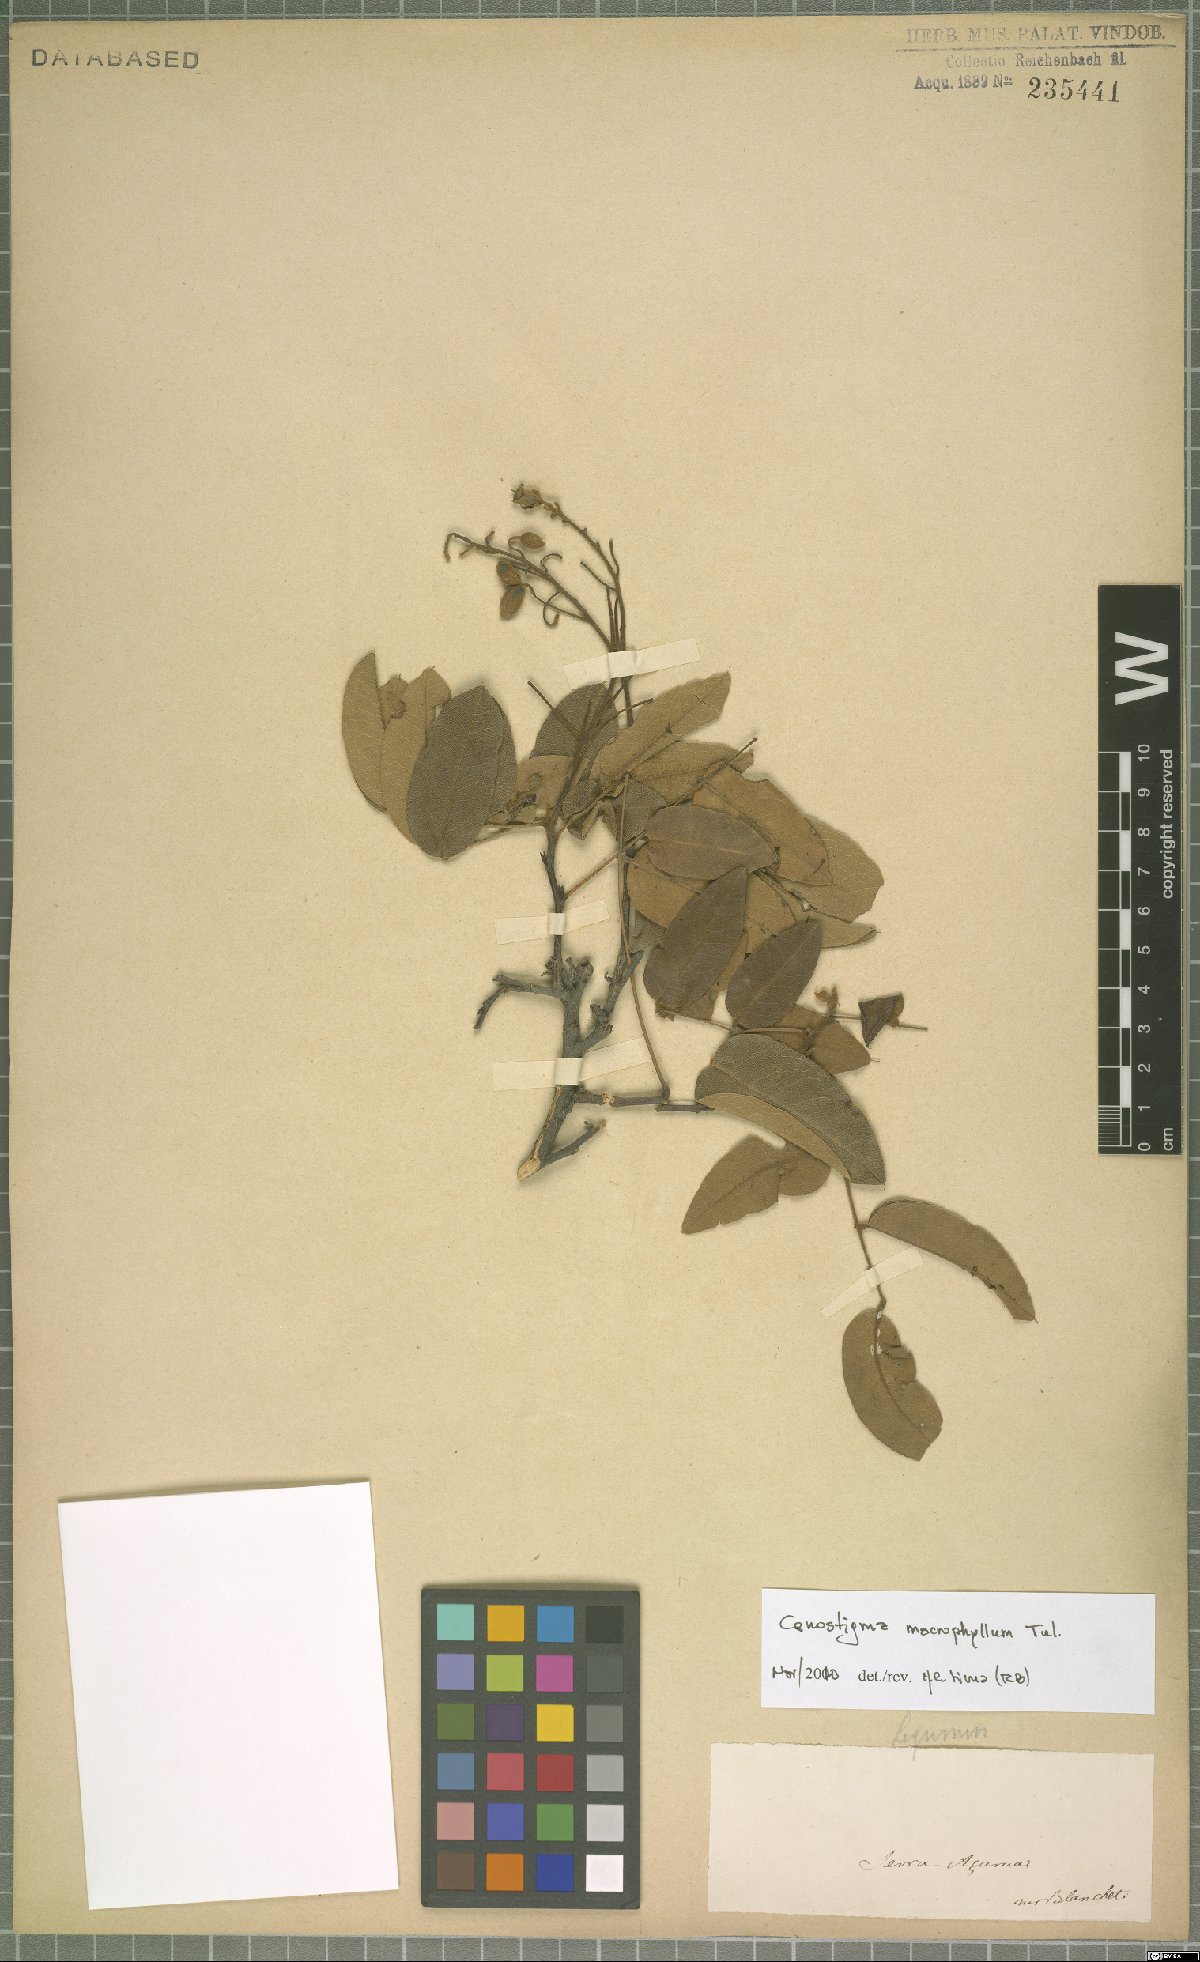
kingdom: Plantae
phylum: Tracheophyta
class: Magnoliopsida
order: Fabales
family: Fabaceae
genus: Cenostigma
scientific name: Cenostigma macrophyllum
